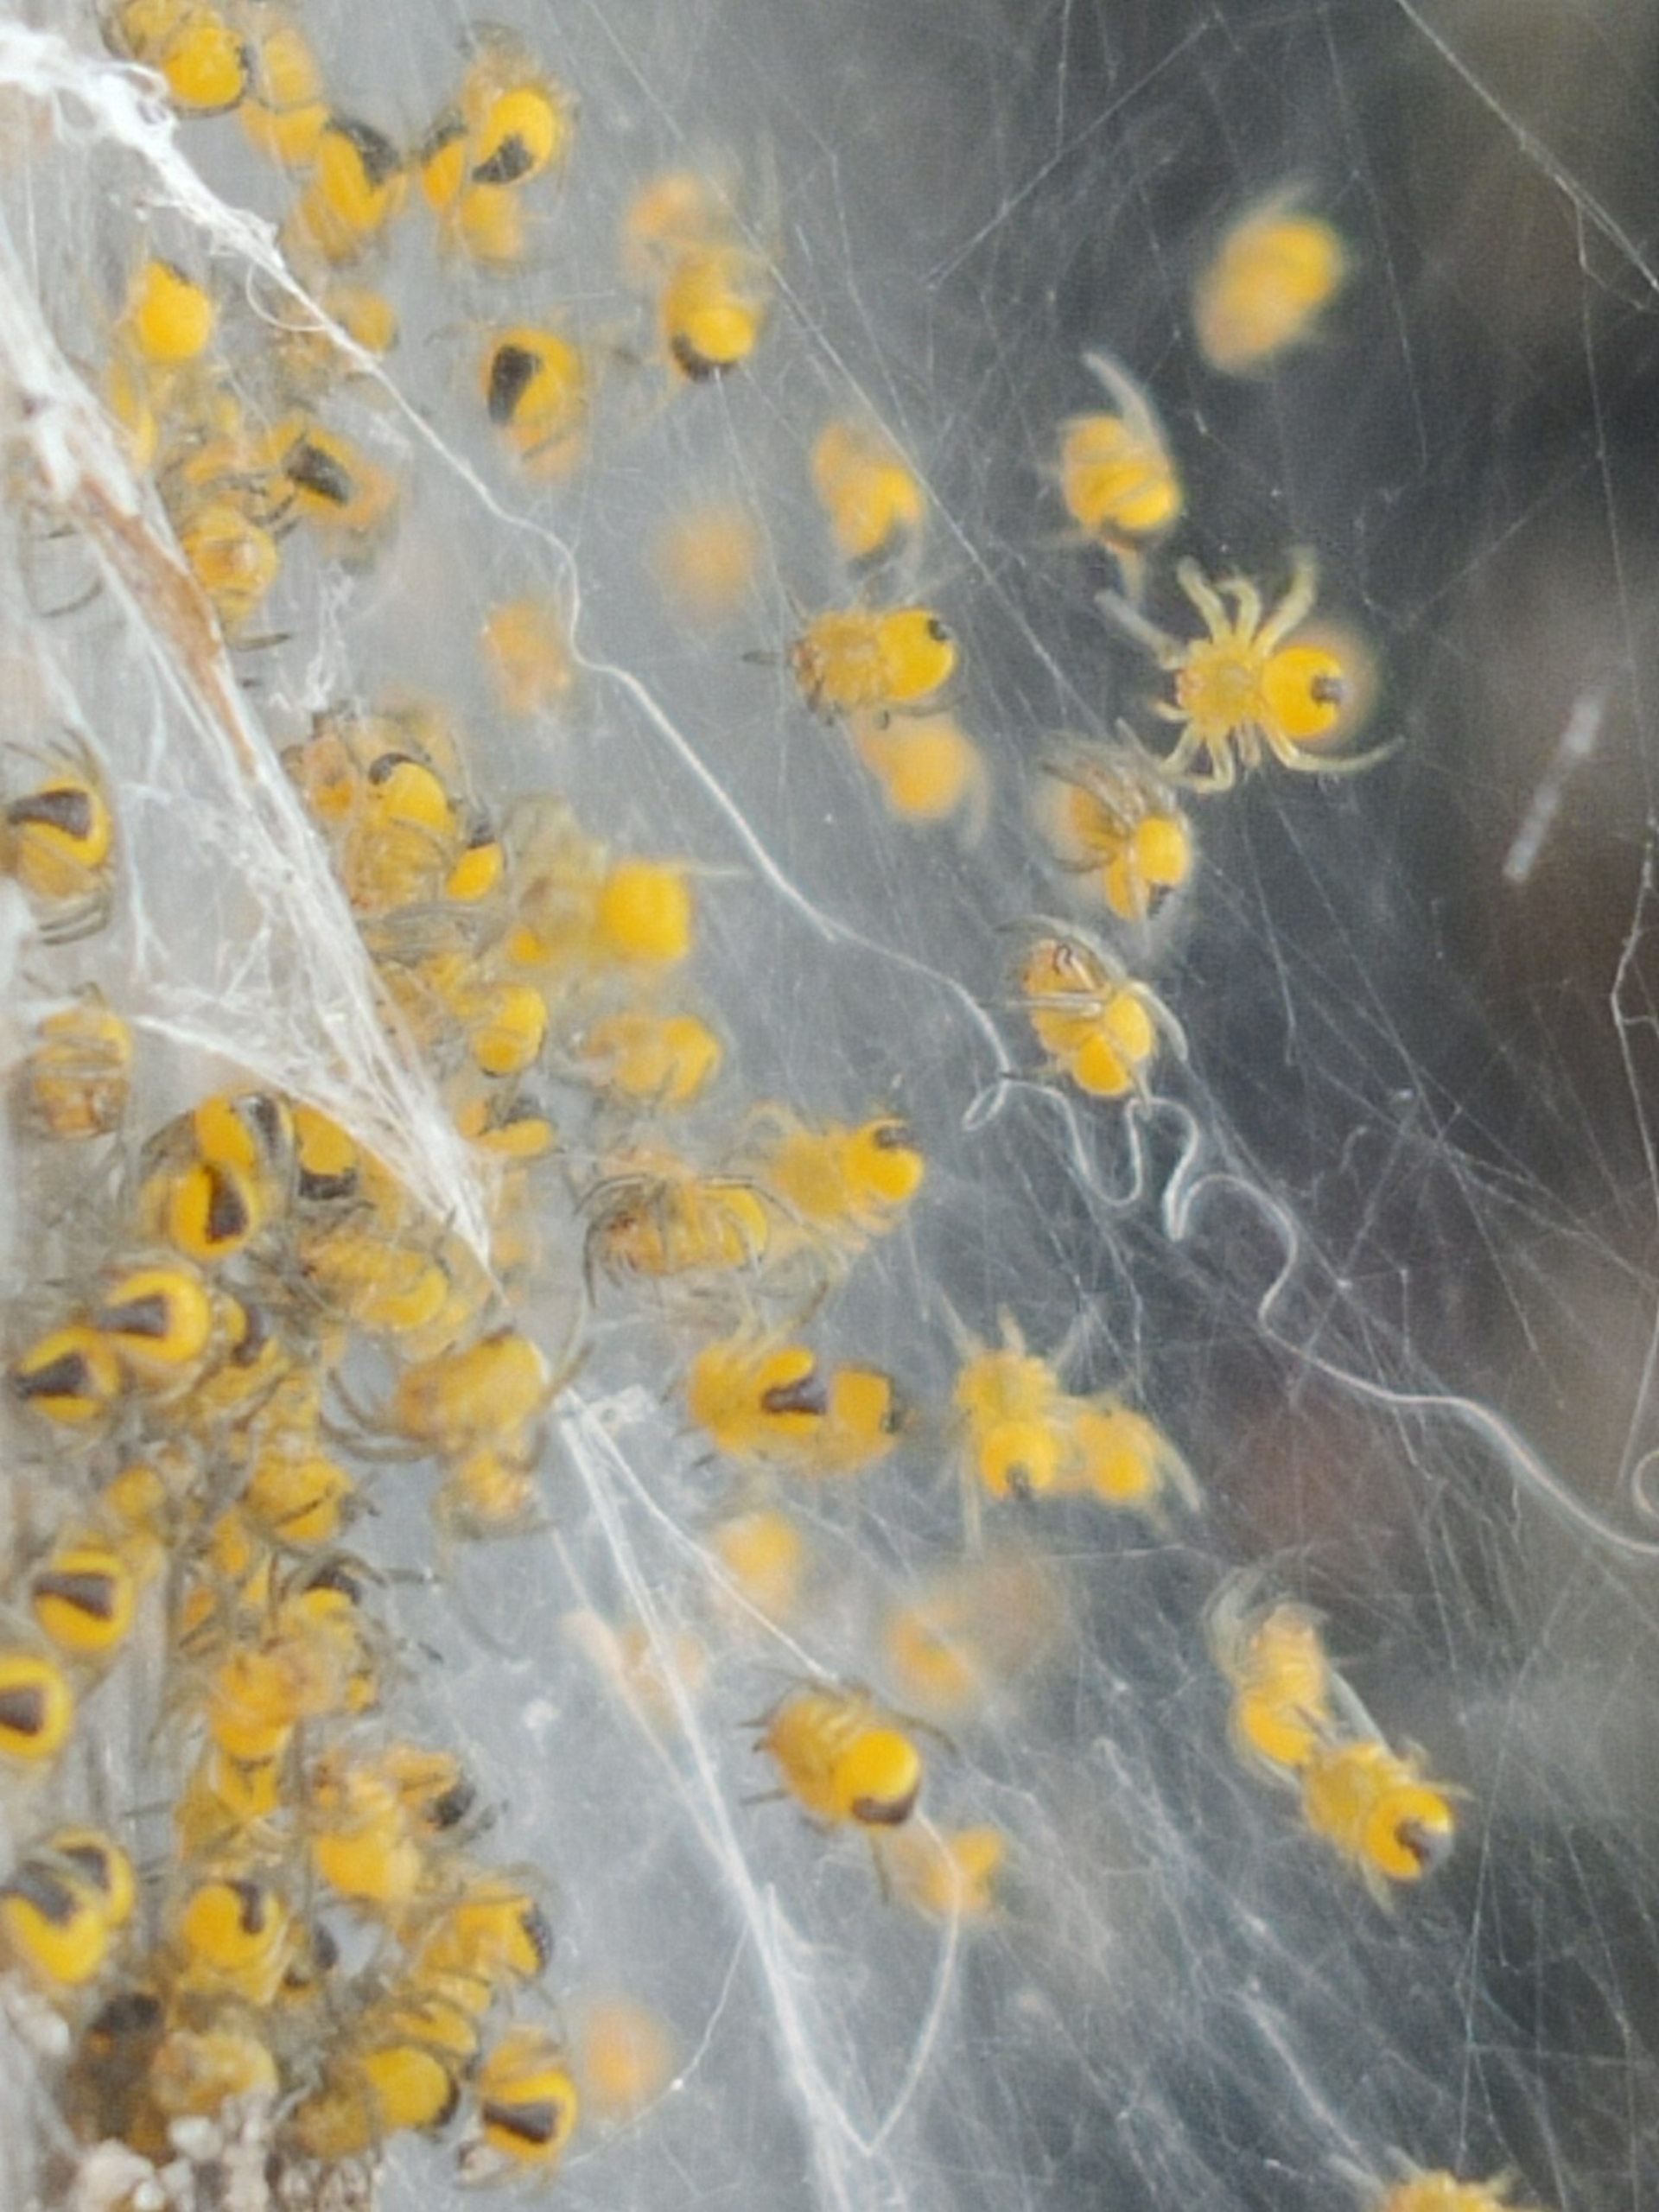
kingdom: Animalia
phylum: Arthropoda
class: Arachnida
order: Araneae
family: Araneidae
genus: Araneus
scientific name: Araneus diadematus
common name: Korsedderkop
